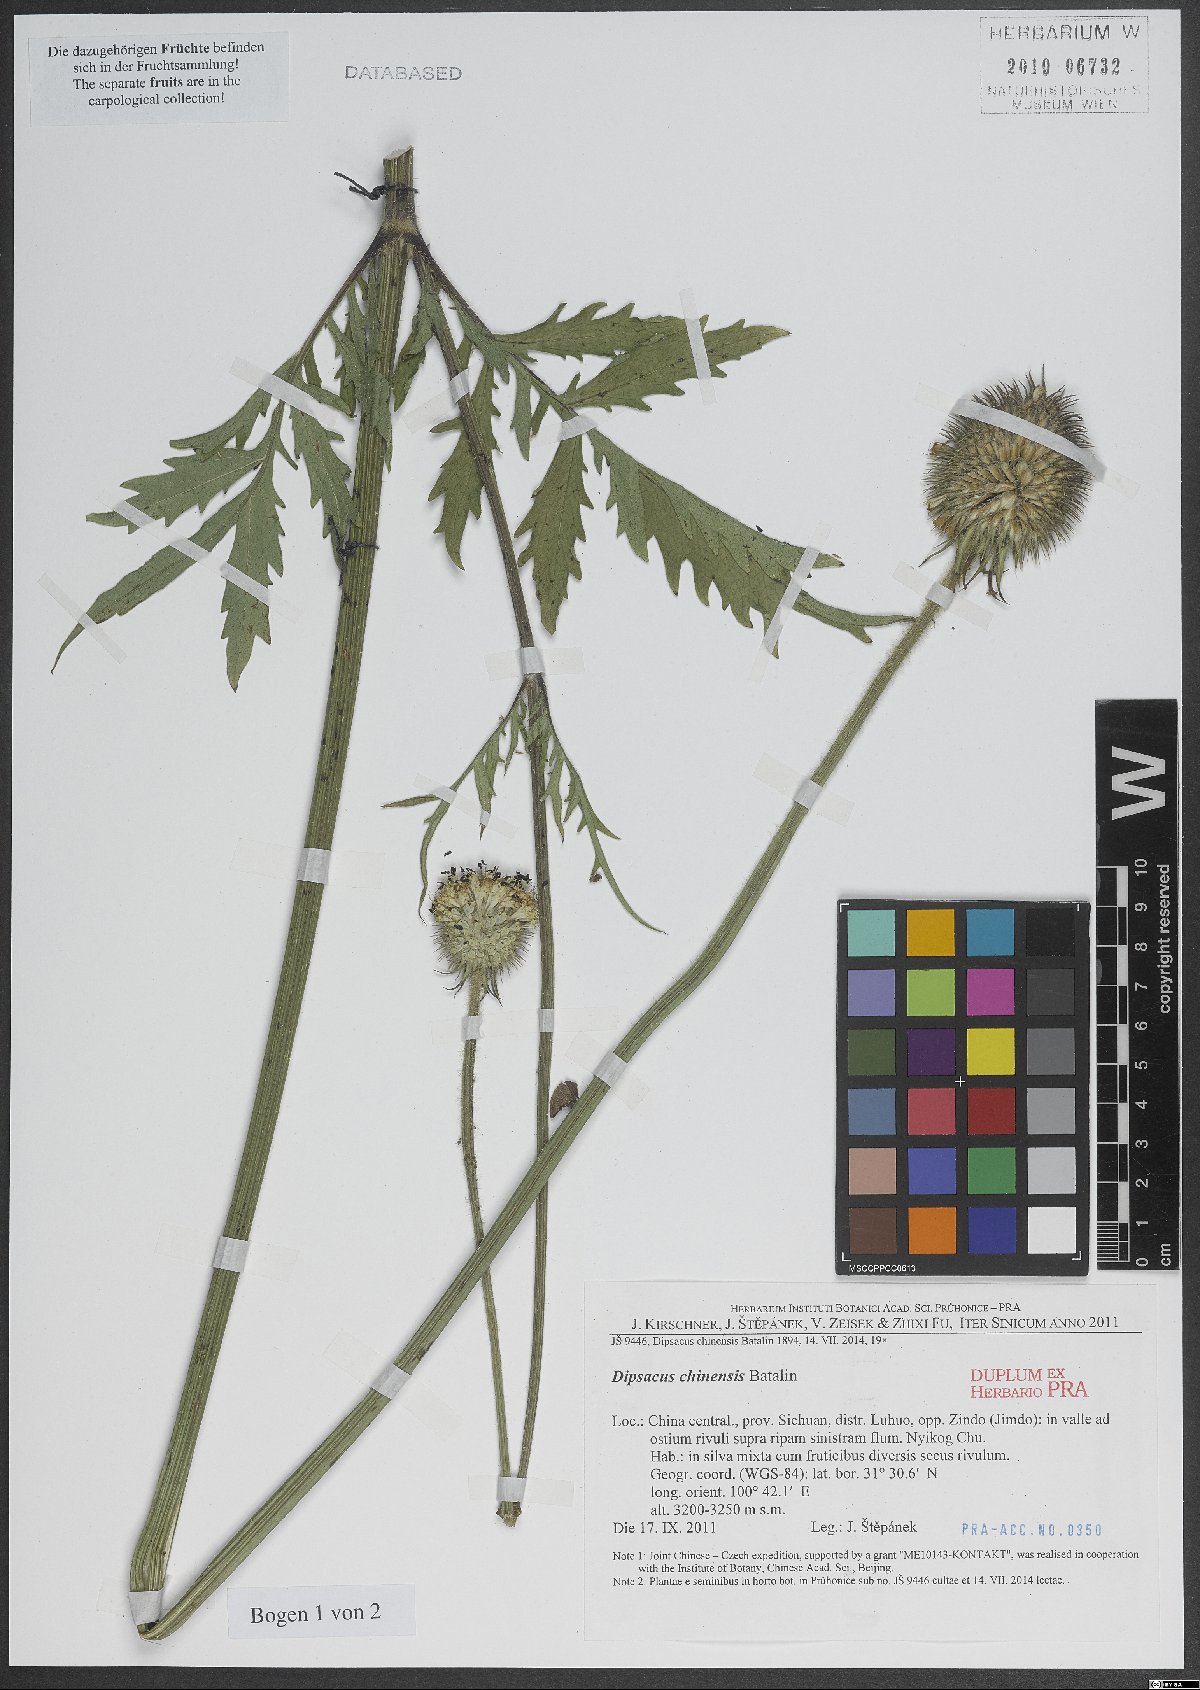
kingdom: Plantae
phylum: Tracheophyta
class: Magnoliopsida
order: Dipsacales
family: Caprifoliaceae
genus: Dipsacus
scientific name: Dipsacus inermis
